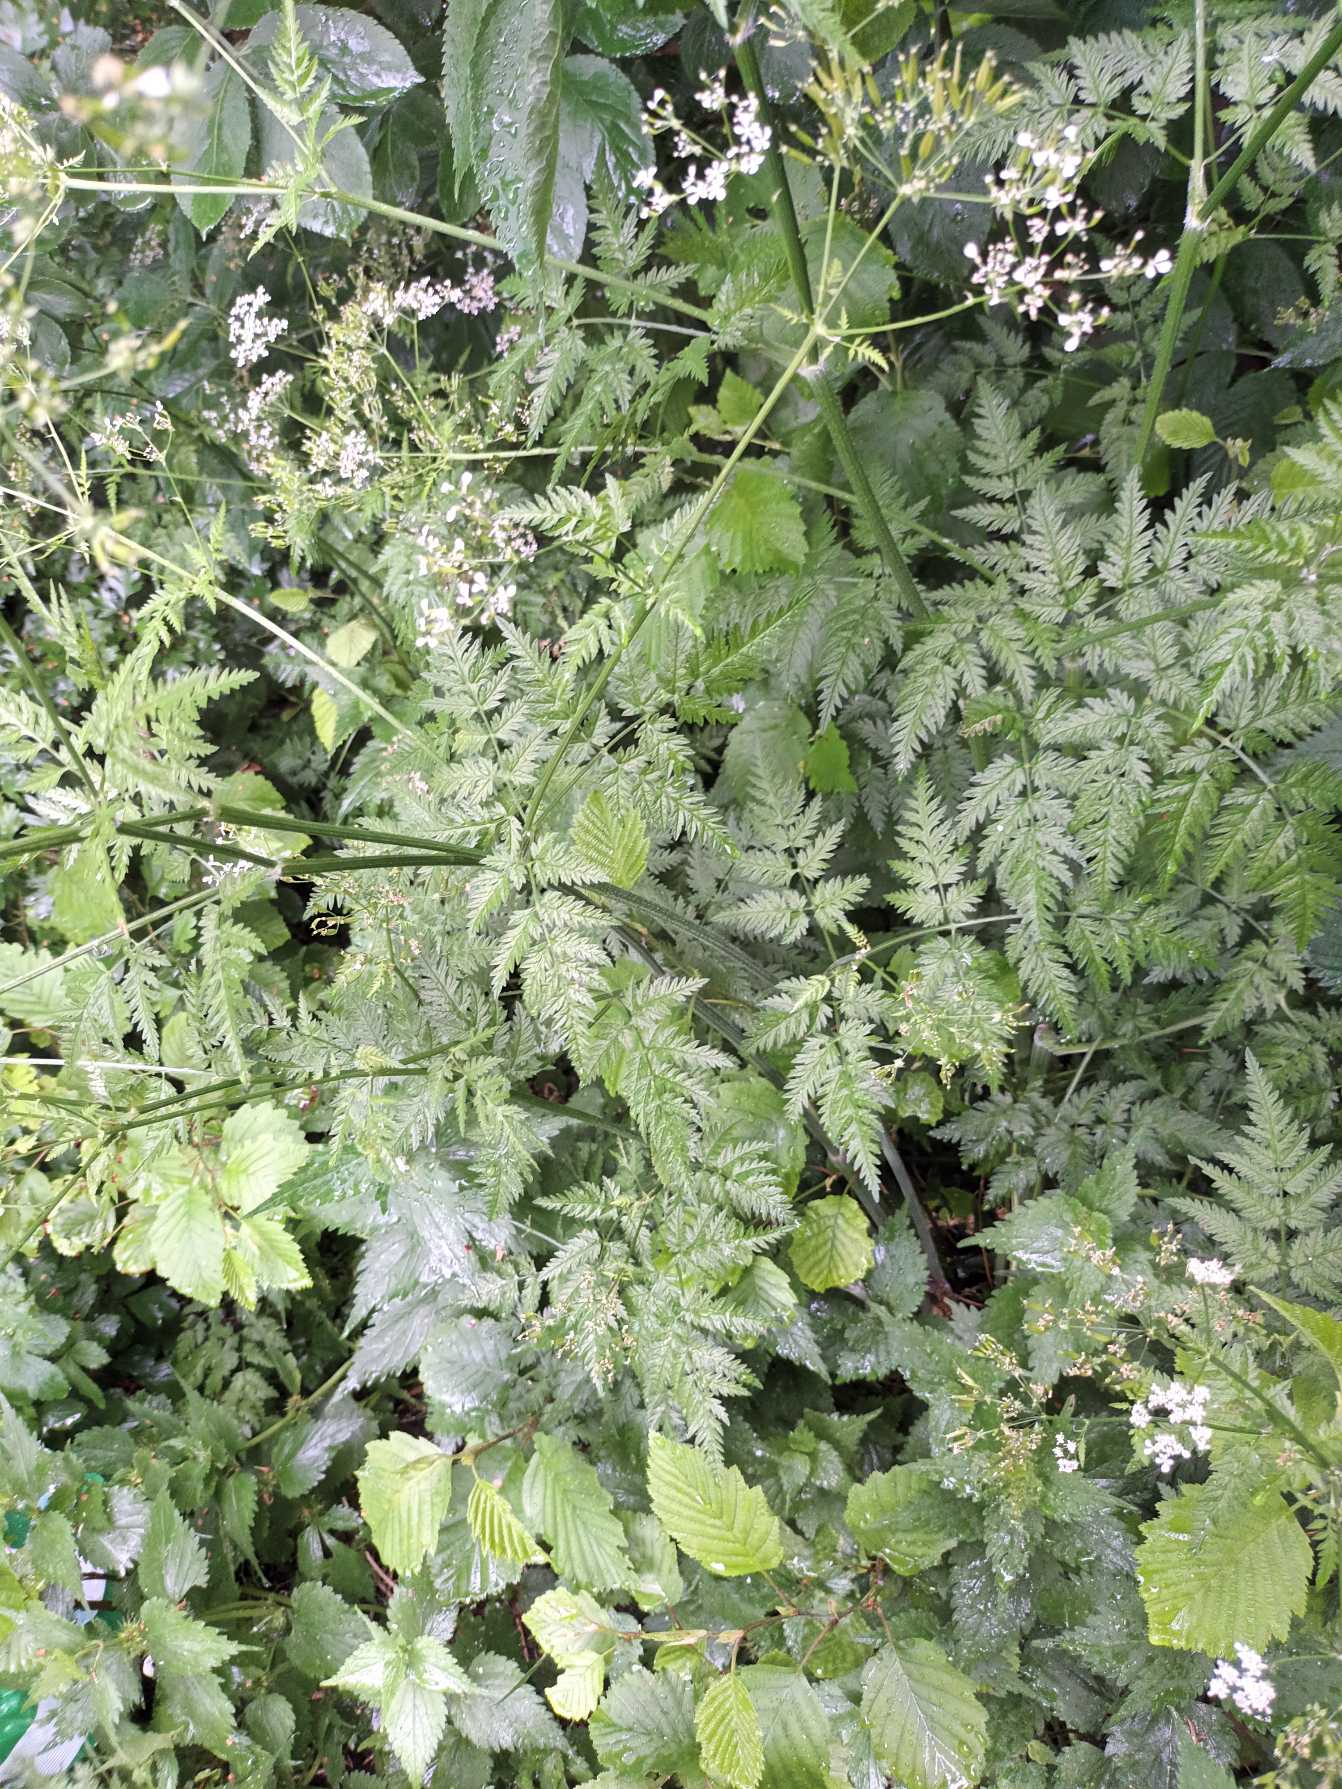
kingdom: Plantae
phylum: Tracheophyta
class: Magnoliopsida
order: Apiales
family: Apiaceae
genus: Anthriscus
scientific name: Anthriscus sylvestris
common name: Vild kørvel
